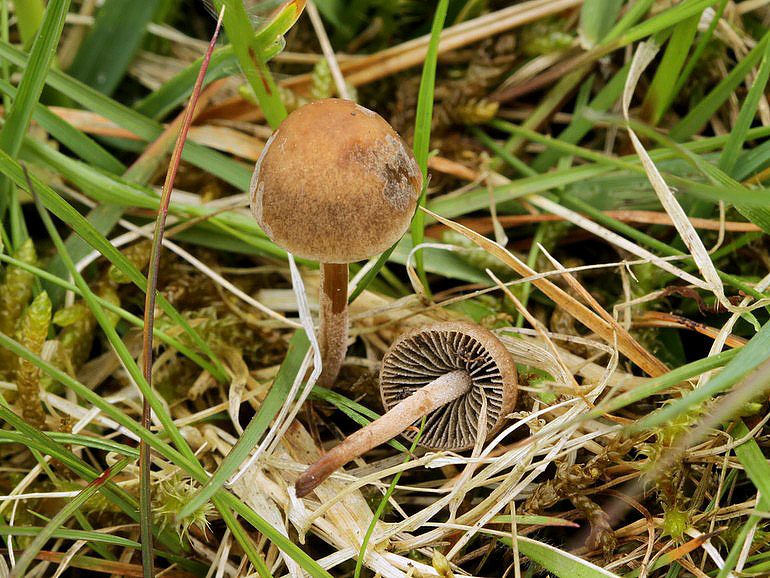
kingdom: Fungi
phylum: Basidiomycota
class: Agaricomycetes
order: Agaricales
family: Bolbitiaceae
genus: Panaeolus
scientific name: Panaeolus fimicola
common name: tidlig glanshat
